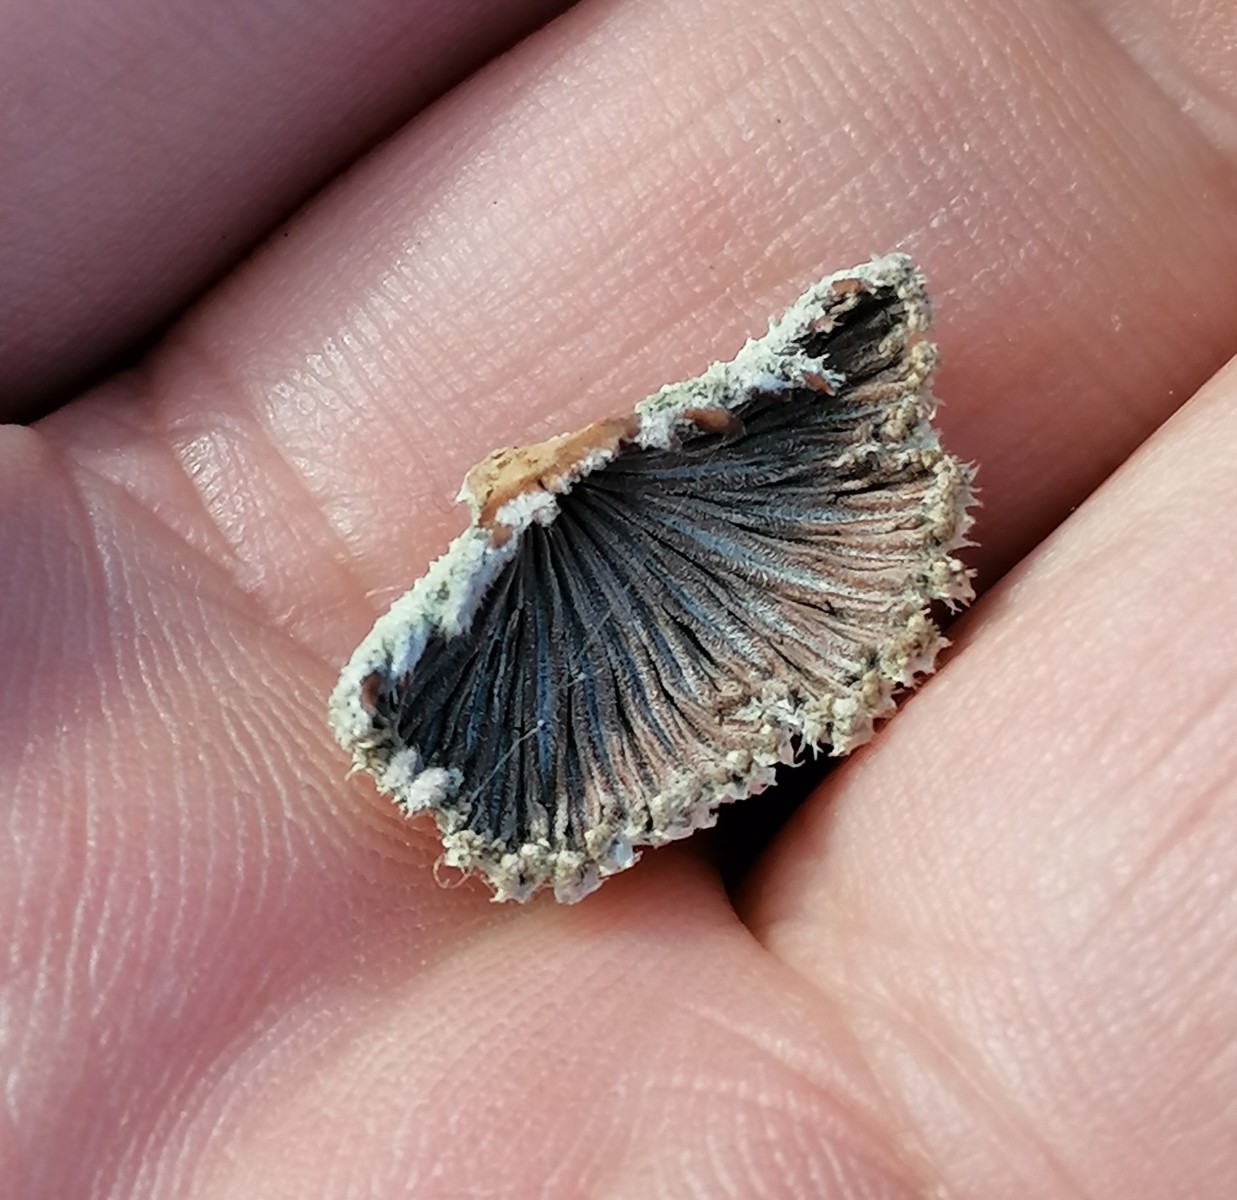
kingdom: Fungi
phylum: Basidiomycota
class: Agaricomycetes
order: Agaricales
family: Schizophyllaceae
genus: Schizophyllum
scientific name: Schizophyllum commune
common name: kløvblad
